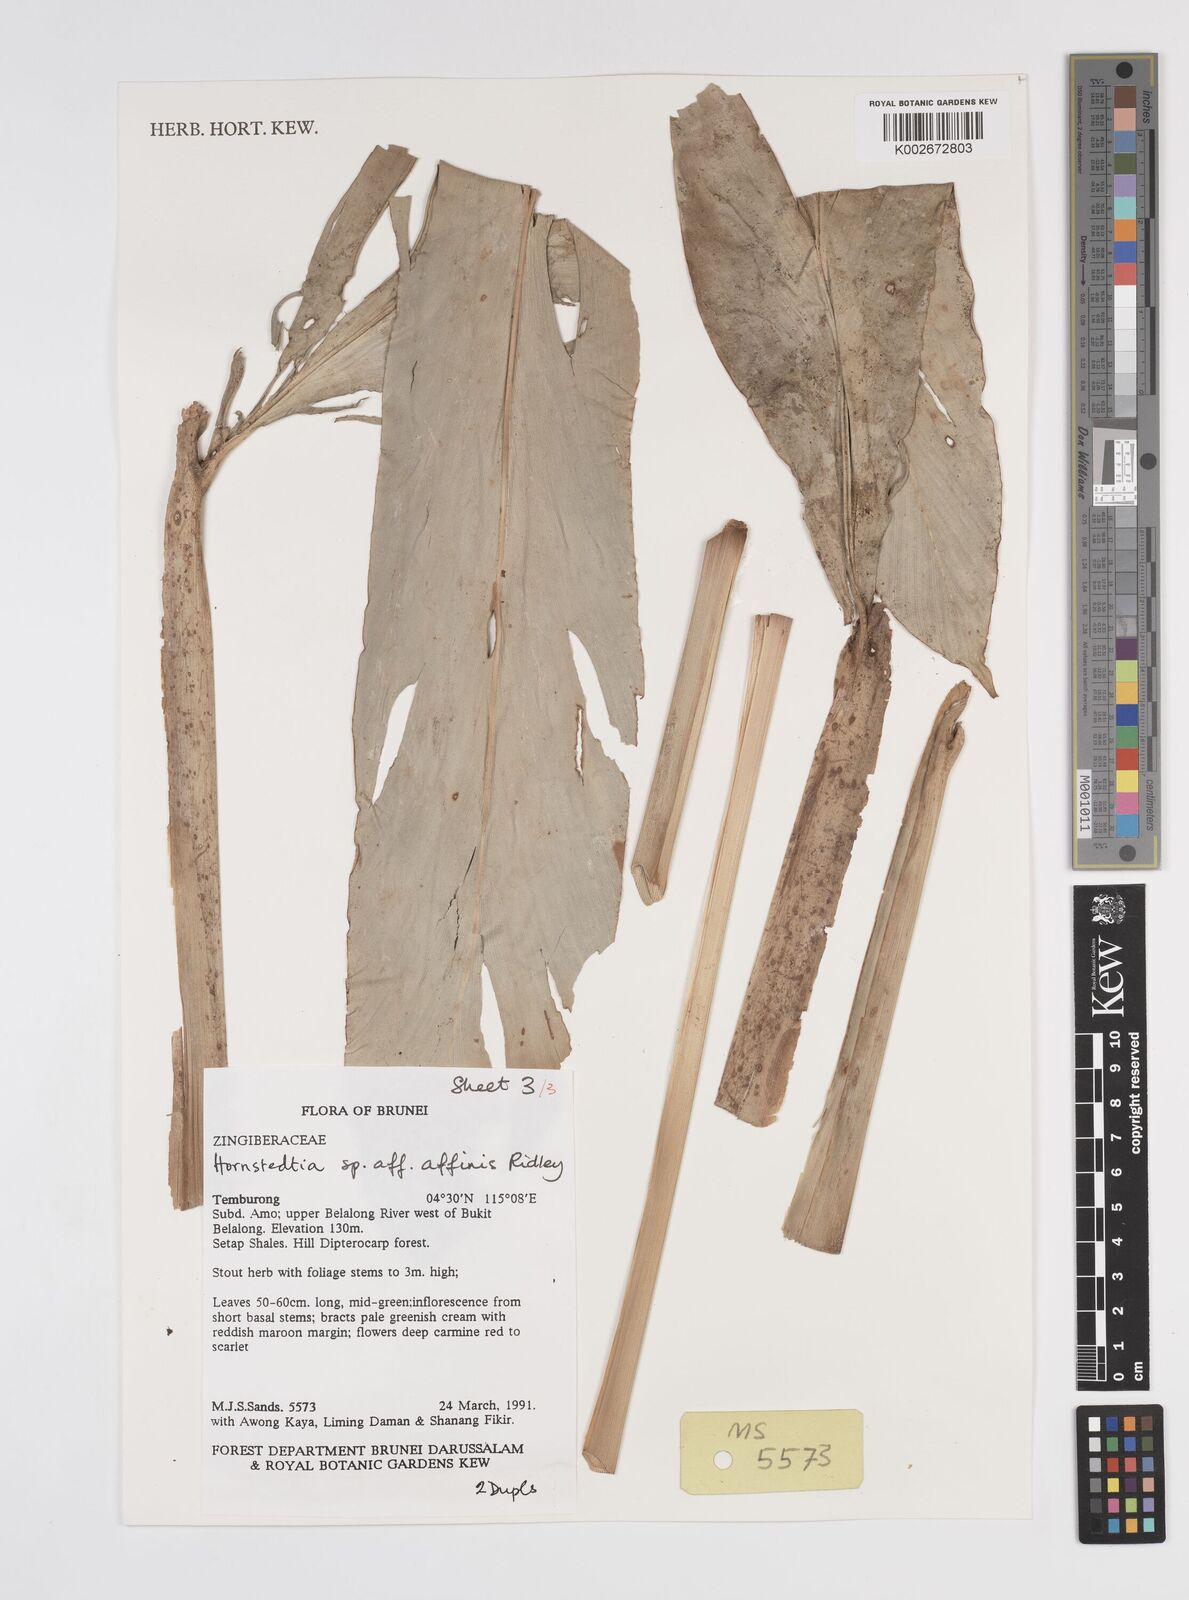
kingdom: Plantae
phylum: Tracheophyta
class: Liliopsida
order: Zingiberales
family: Zingiberaceae
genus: Etlingera
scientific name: Etlingera rubromarginata
